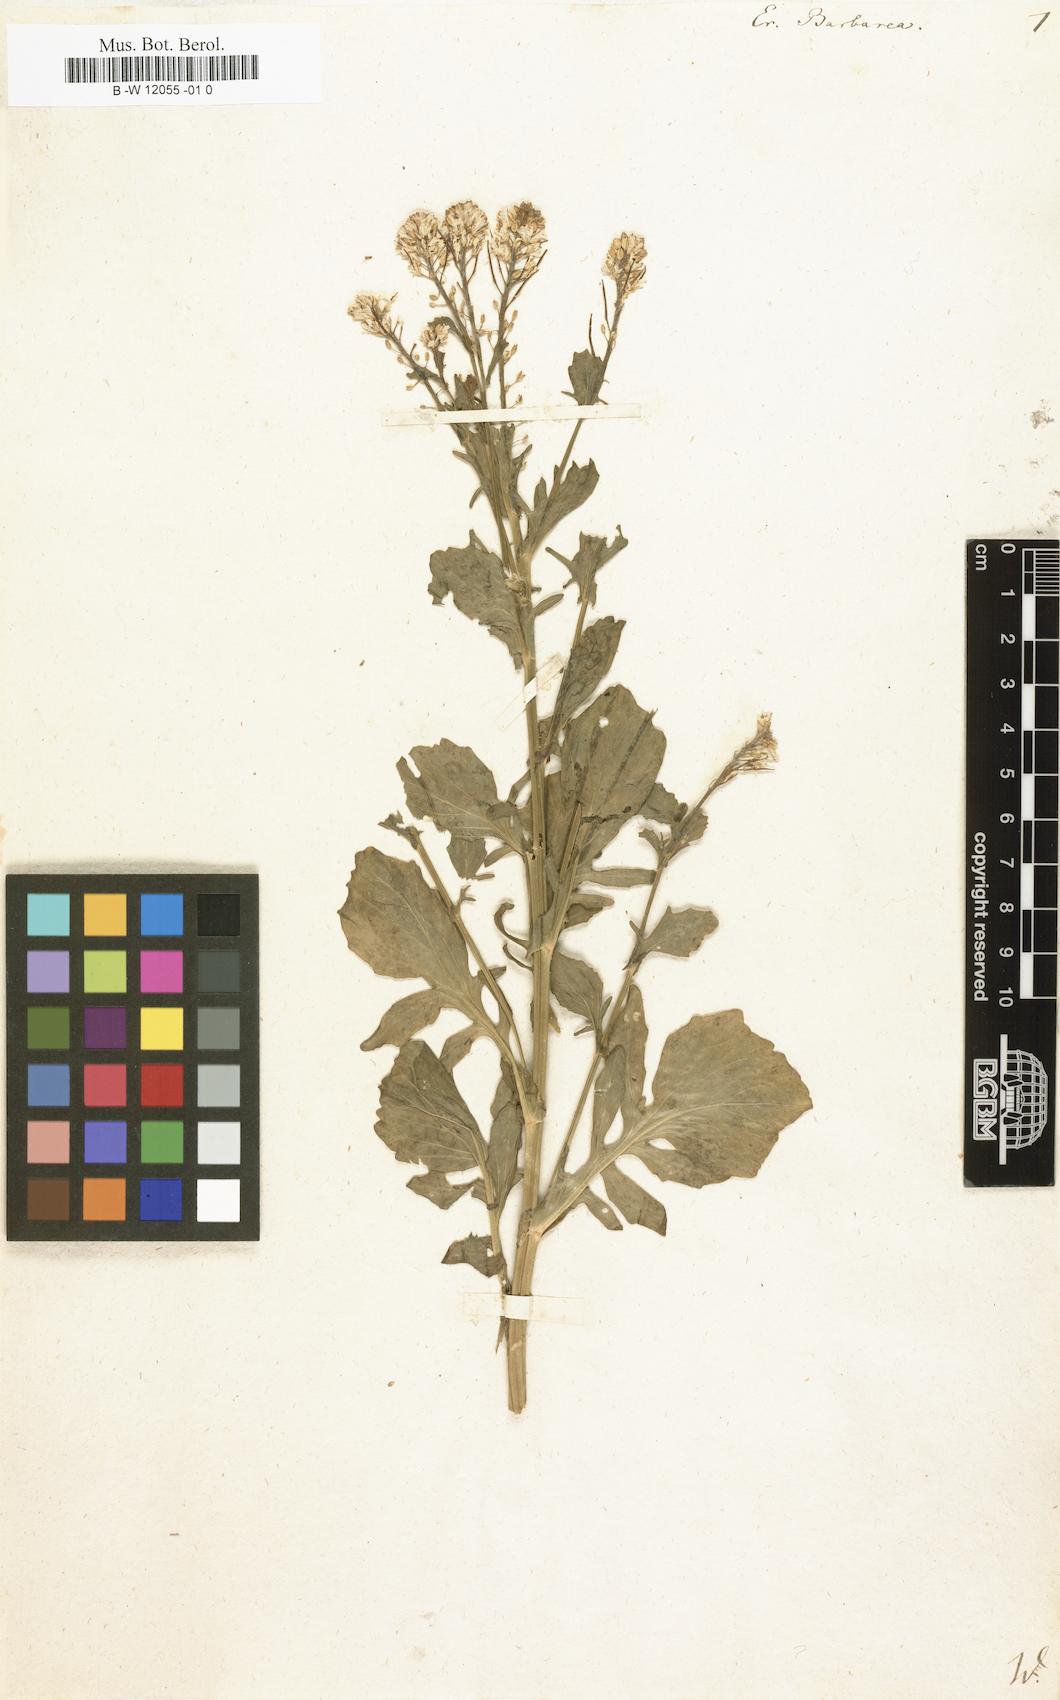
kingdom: Plantae
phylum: Tracheophyta
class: Magnoliopsida
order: Brassicales
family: Brassicaceae
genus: Erysimum
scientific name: Erysimum barbarea
